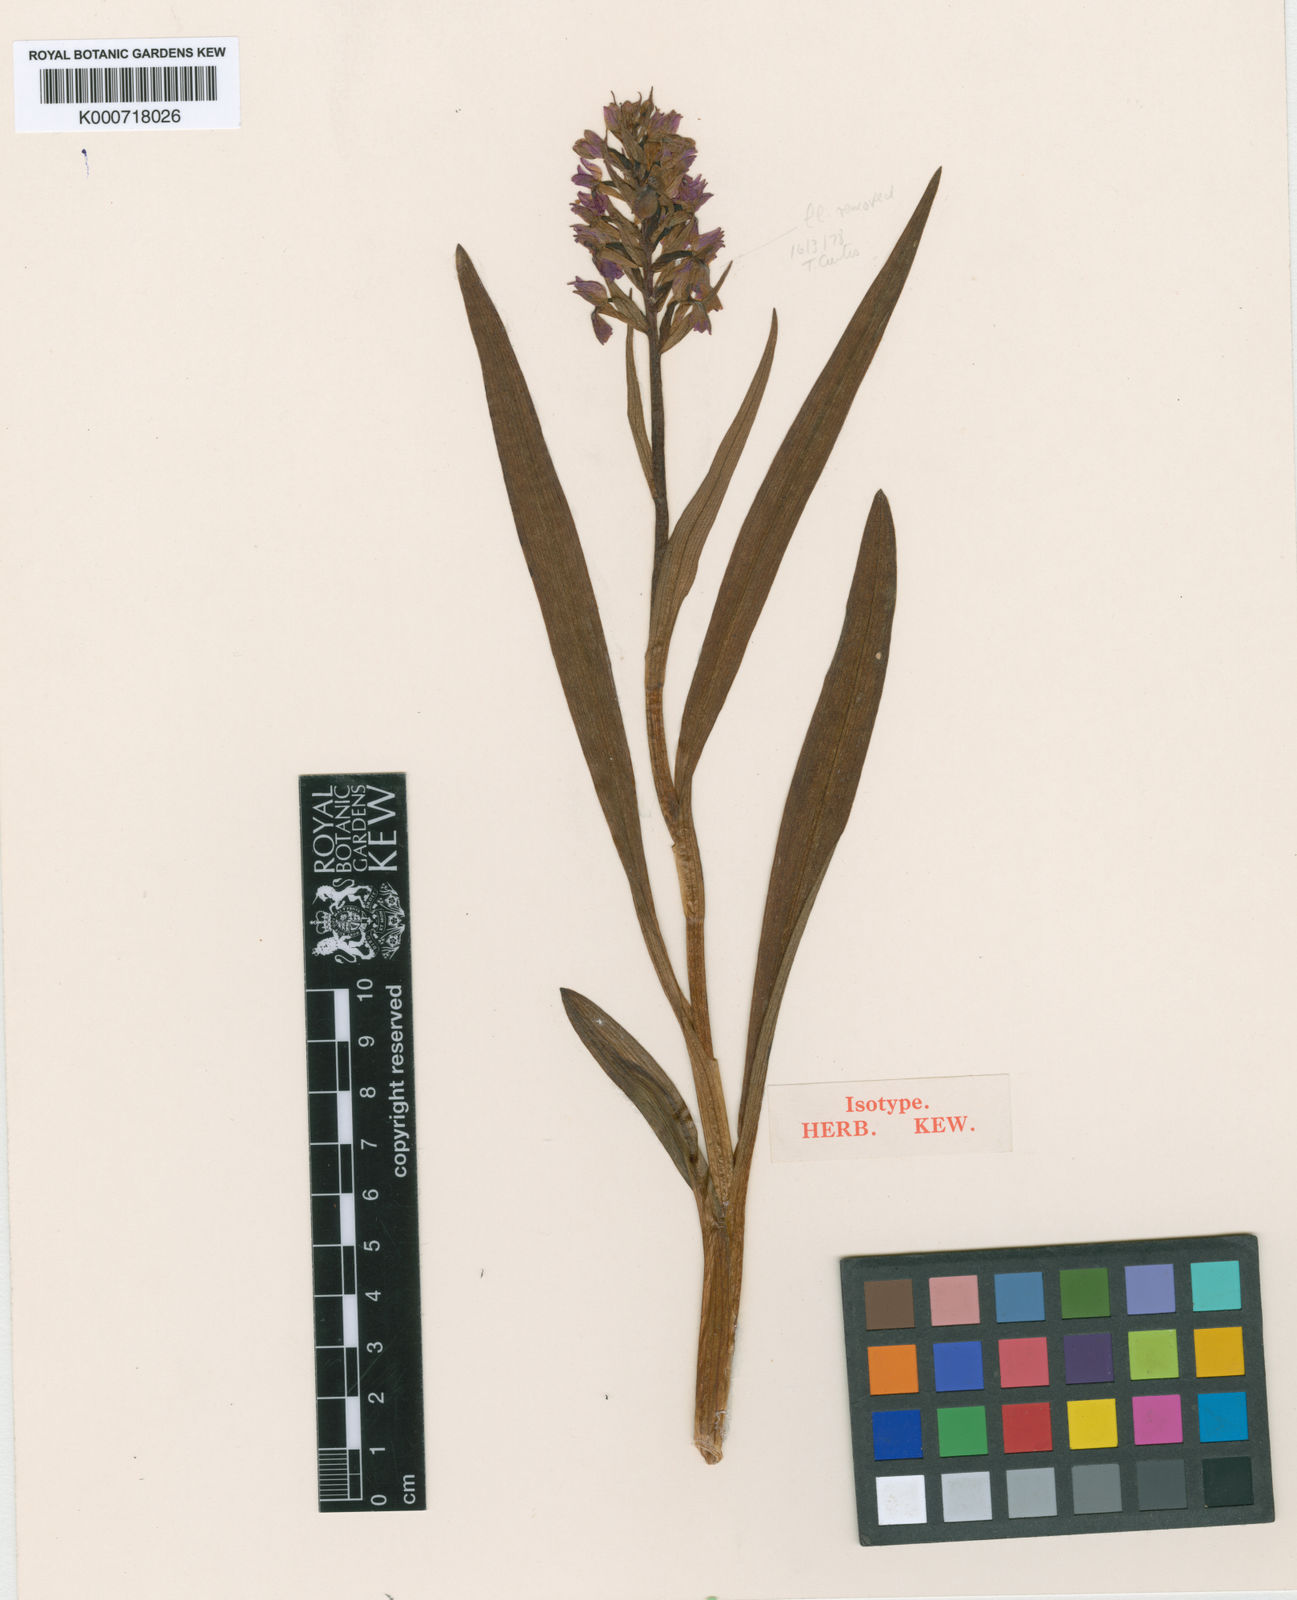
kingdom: Plantae
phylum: Tracheophyta
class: Liliopsida
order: Asparagales
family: Orchidaceae
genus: Dactylorhiza
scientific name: Dactylorhiza majalis
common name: Marsh orchid
